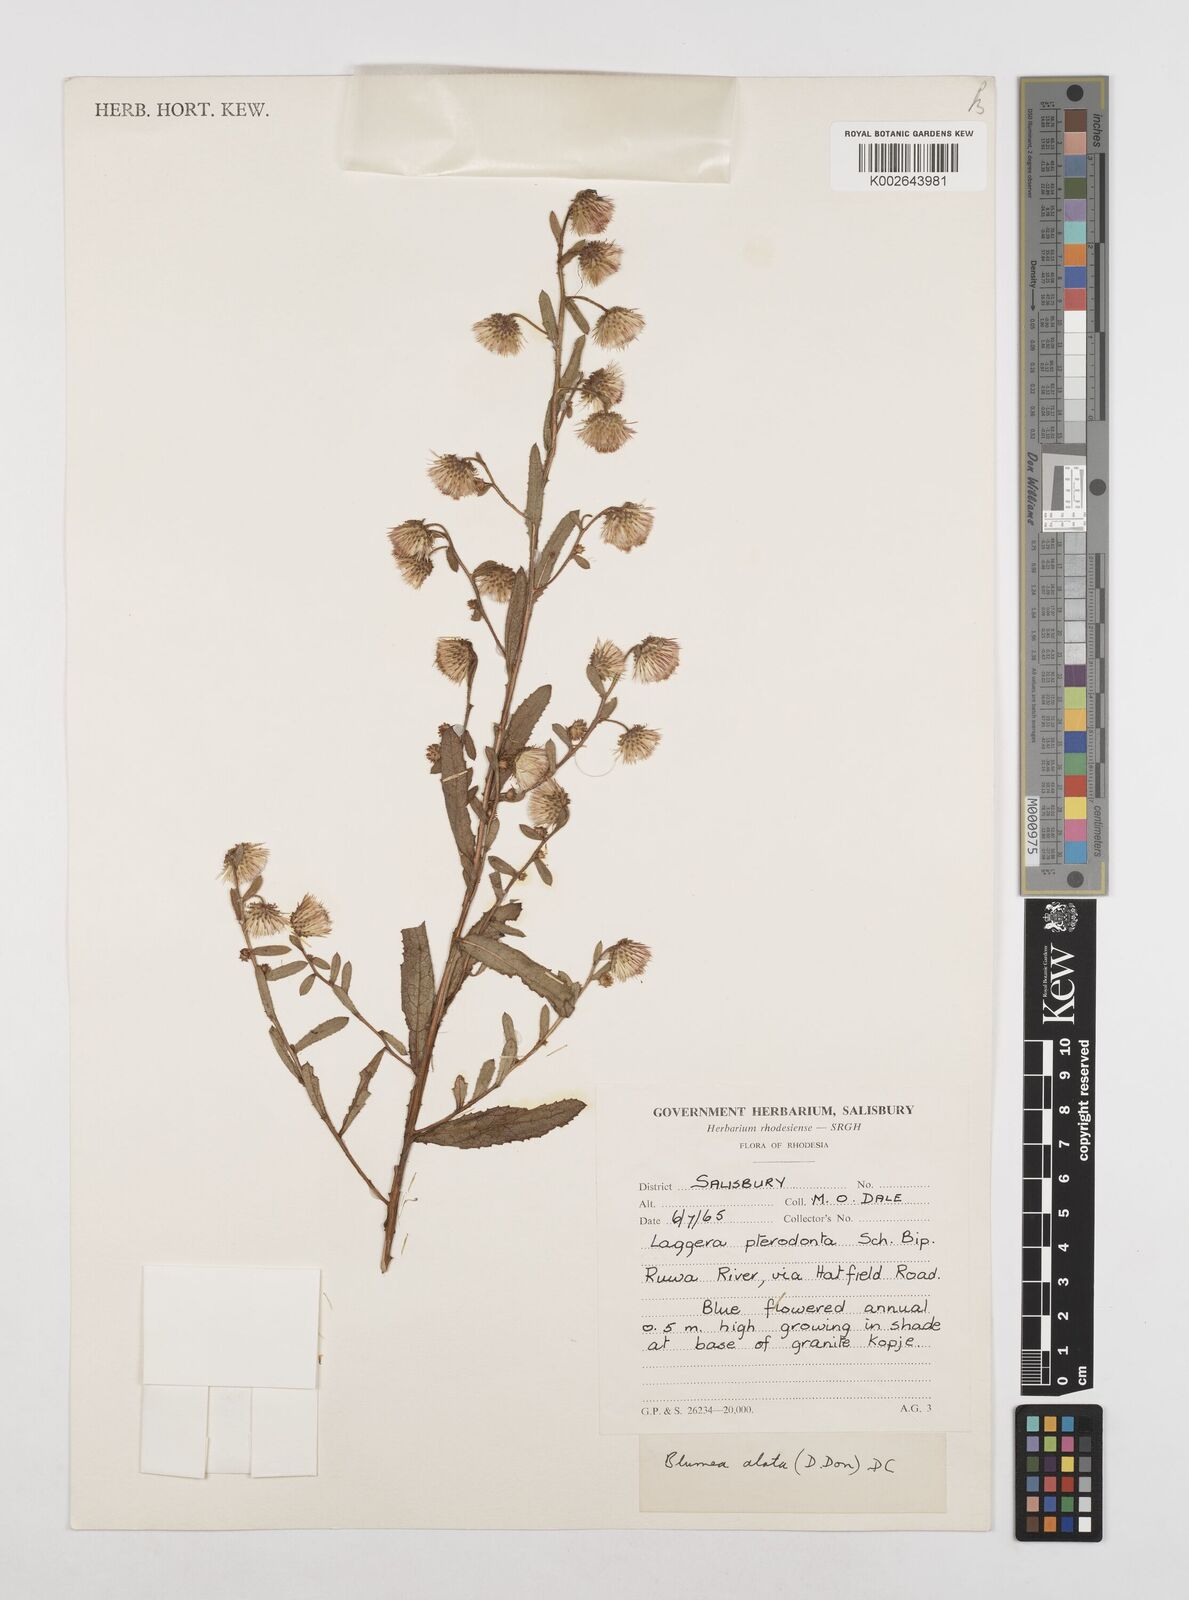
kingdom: Plantae
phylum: Tracheophyta
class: Magnoliopsida
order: Asterales
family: Asteraceae
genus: Laggera
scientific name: Laggera crispata
